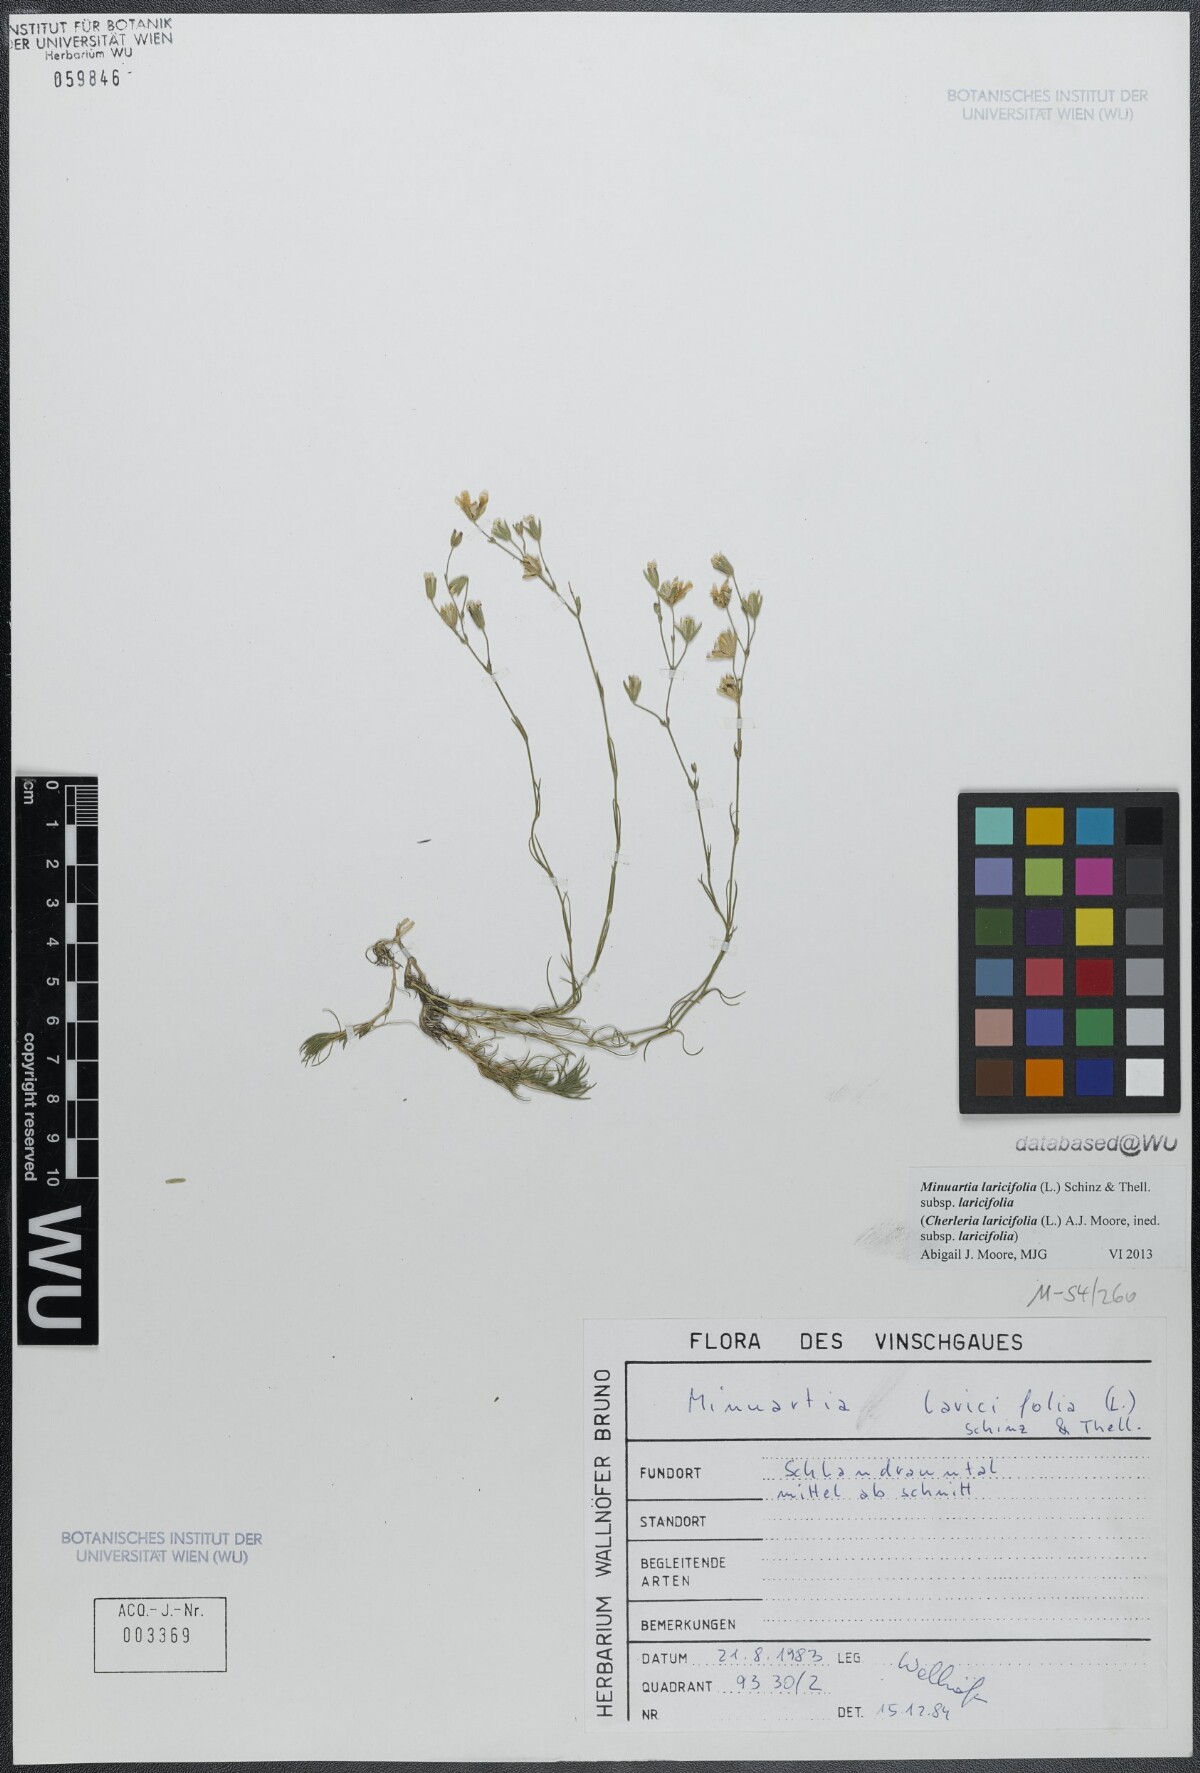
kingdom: Plantae
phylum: Tracheophyta
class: Magnoliopsida
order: Caryophyllales
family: Caryophyllaceae
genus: Cherleria
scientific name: Cherleria laricifolia
